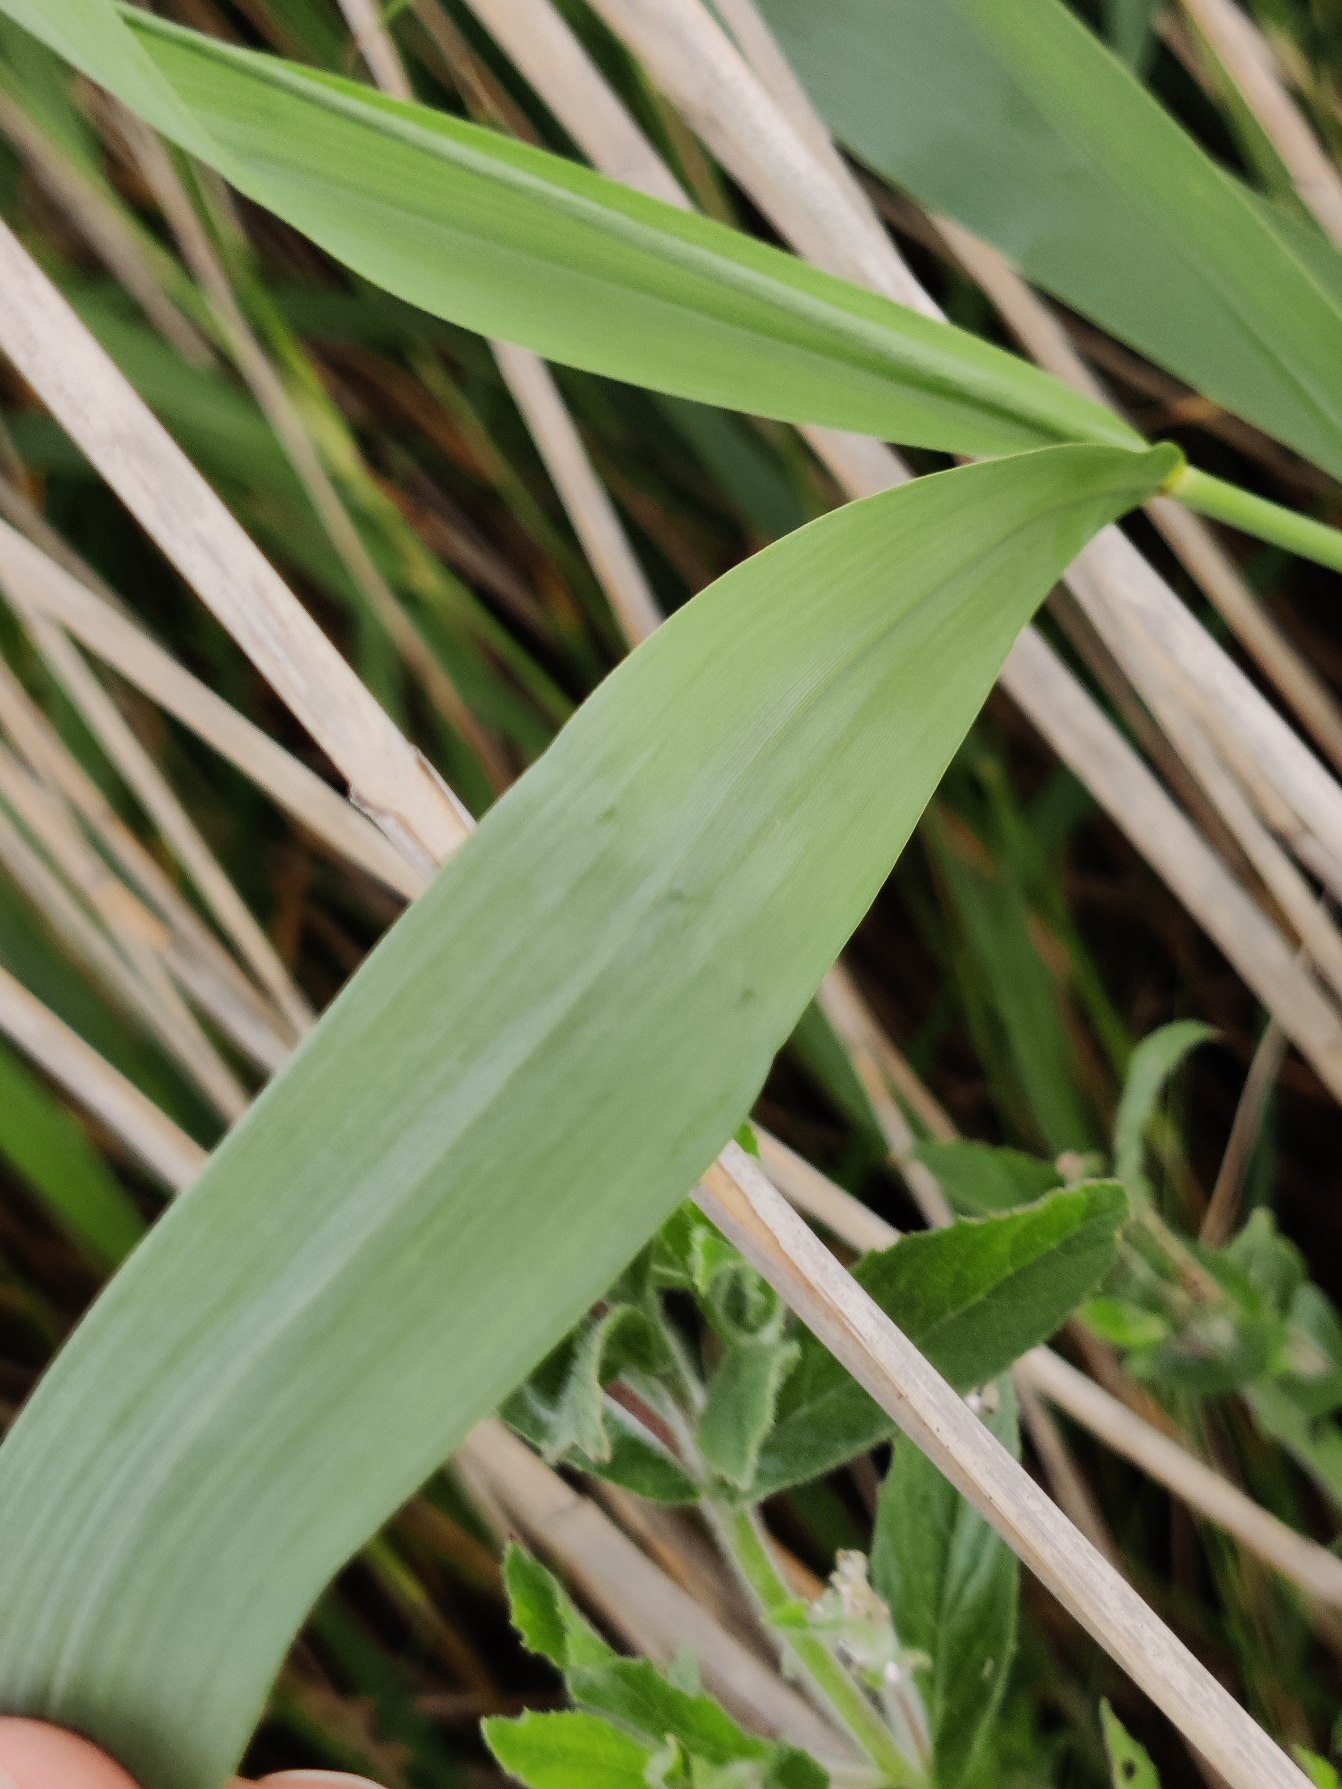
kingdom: Plantae
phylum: Tracheophyta
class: Liliopsida
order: Poales
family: Poaceae
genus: Phragmites
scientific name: Phragmites australis
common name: Tagrør
